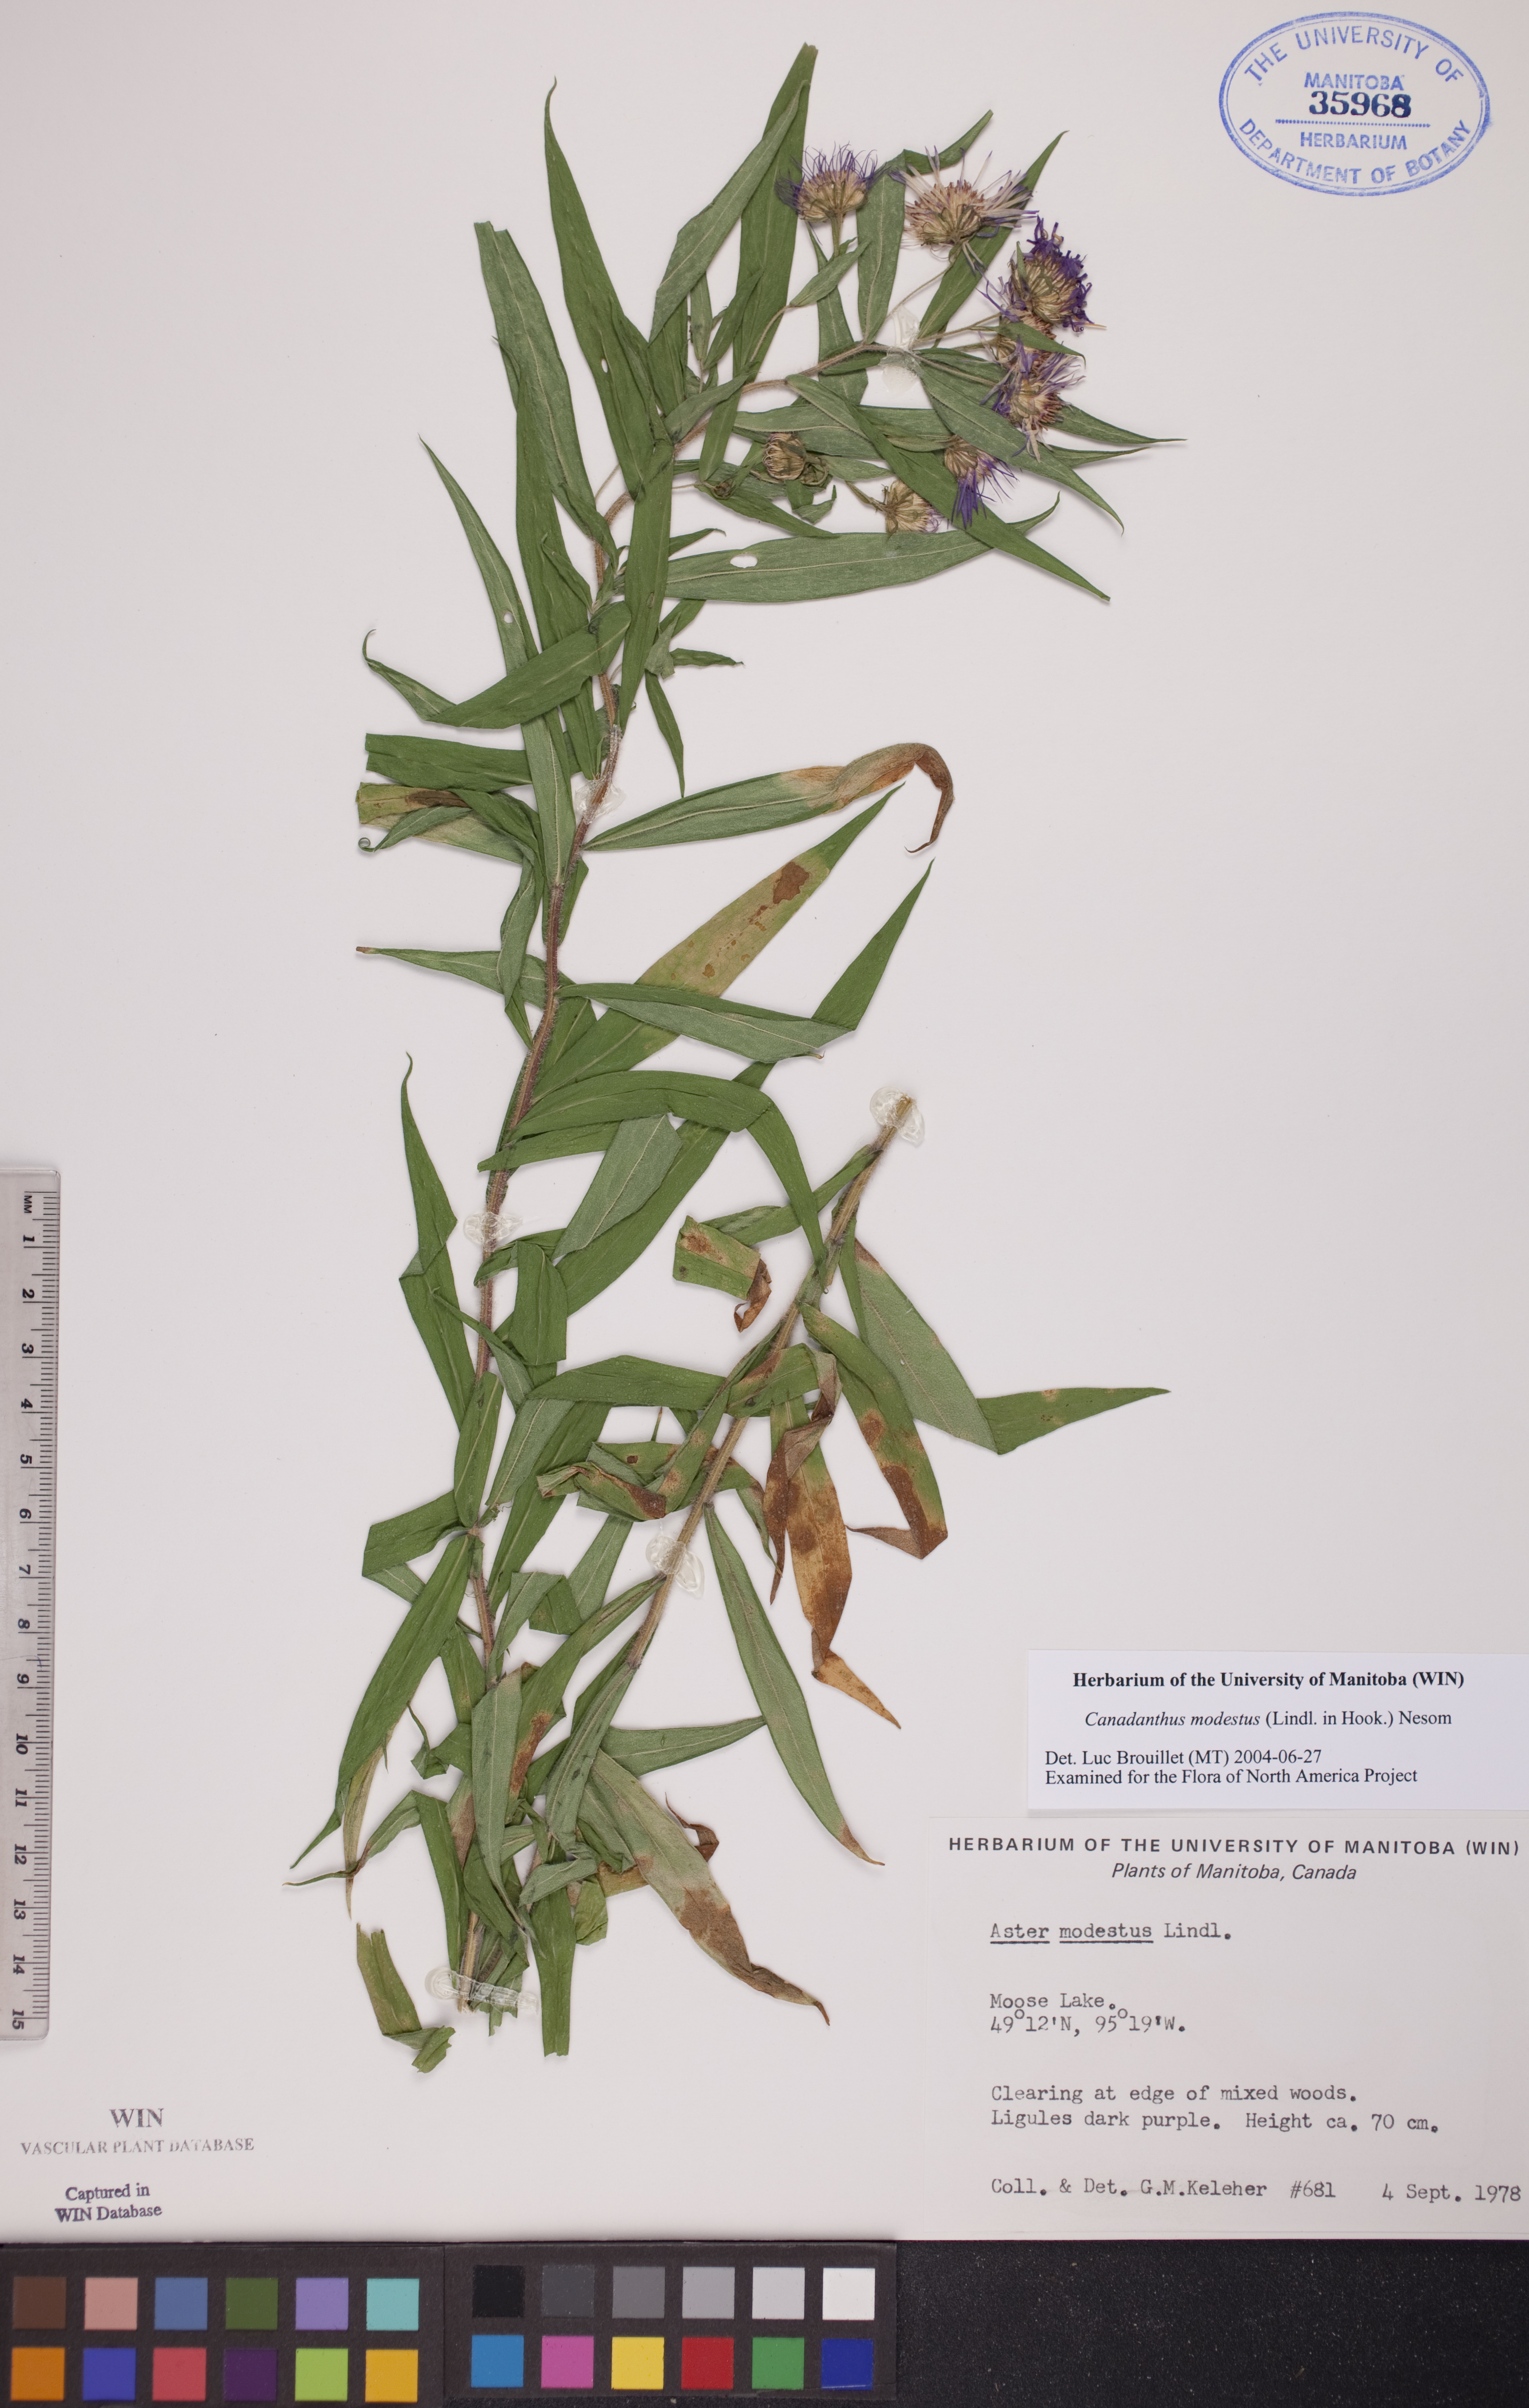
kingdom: Plantae
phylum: Tracheophyta
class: Magnoliopsida
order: Asterales
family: Asteraceae
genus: Canadanthus
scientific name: Canadanthus modestus
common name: Great northern aster
